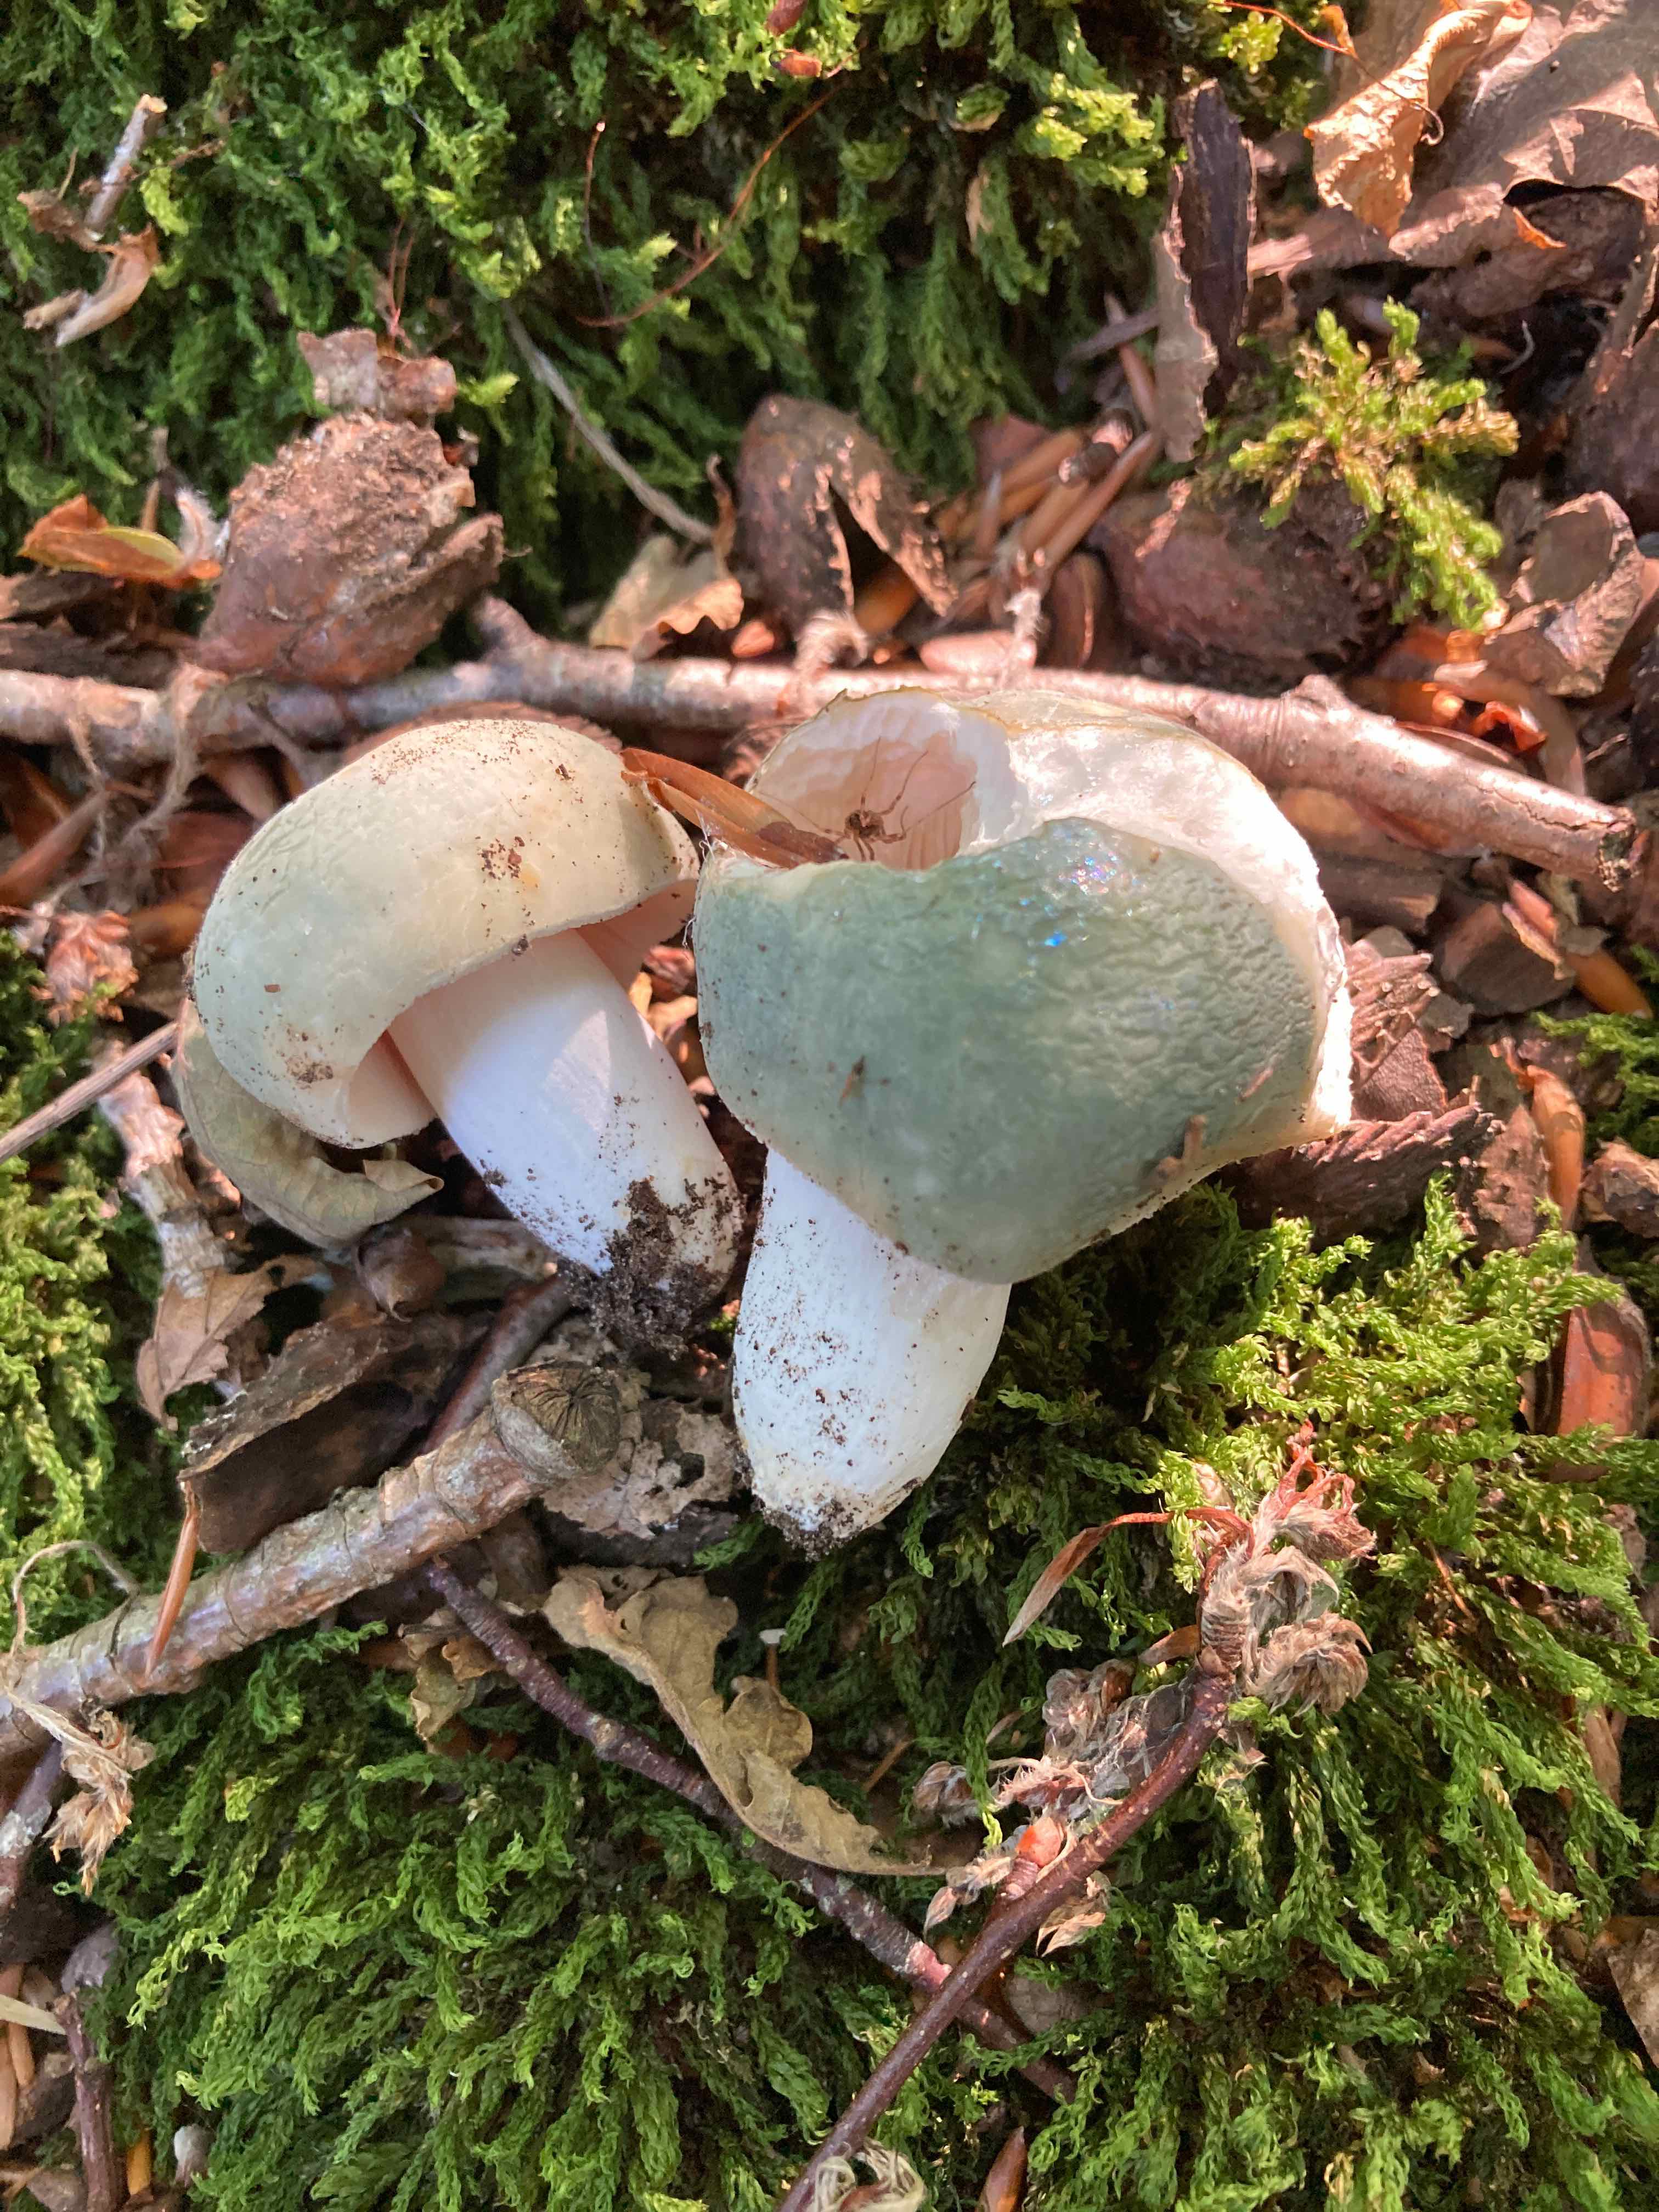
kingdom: Fungi
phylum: Basidiomycota
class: Agaricomycetes
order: Russulales
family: Russulaceae
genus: Russula
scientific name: Russula virescens
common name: spanskgrøn skørhat
